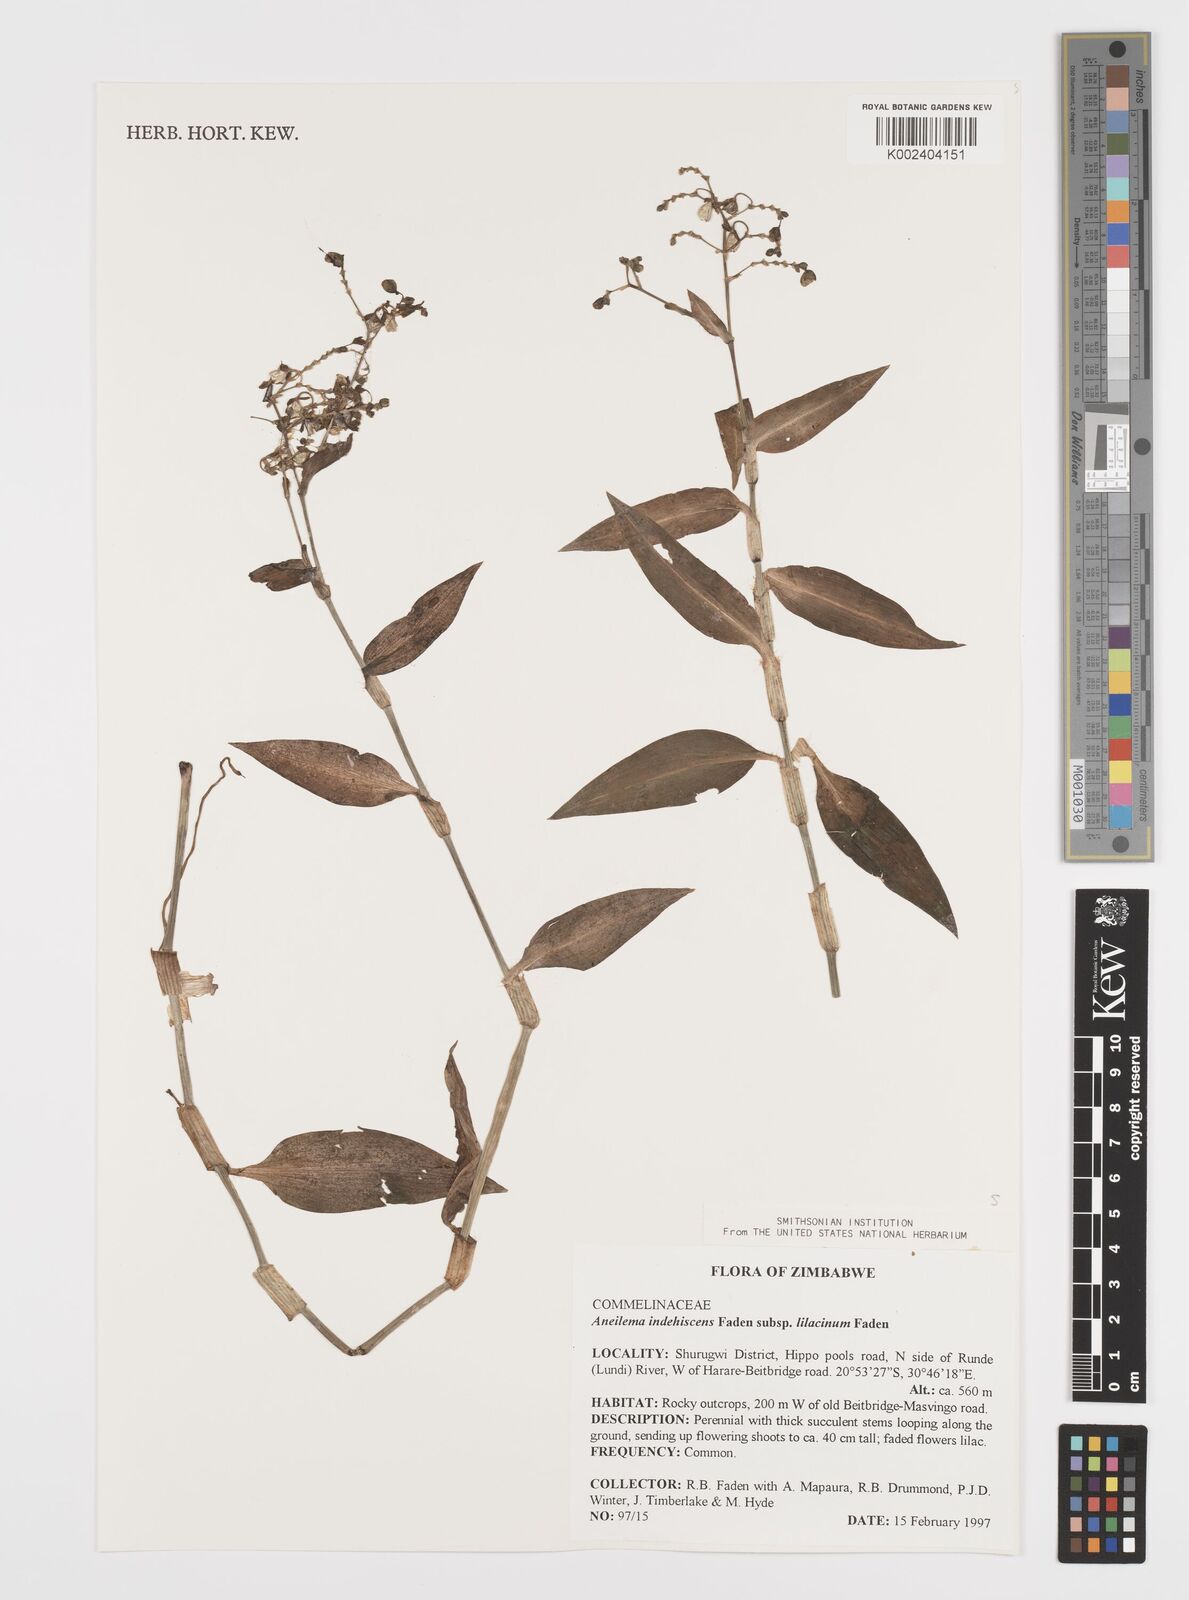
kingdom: Plantae
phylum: Tracheophyta
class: Liliopsida
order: Commelinales
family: Commelinaceae
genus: Aneilema
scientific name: Aneilema indehiscens
